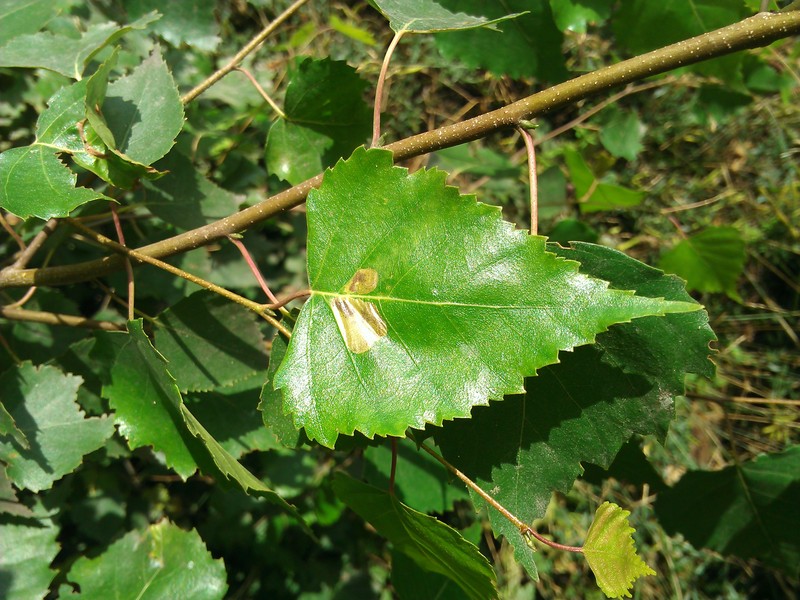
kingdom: Animalia
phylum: Arthropoda
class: Insecta
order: Hymenoptera
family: Tenthredinidae
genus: Fenusa
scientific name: Fenusa pusilla
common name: Birch leafminer
